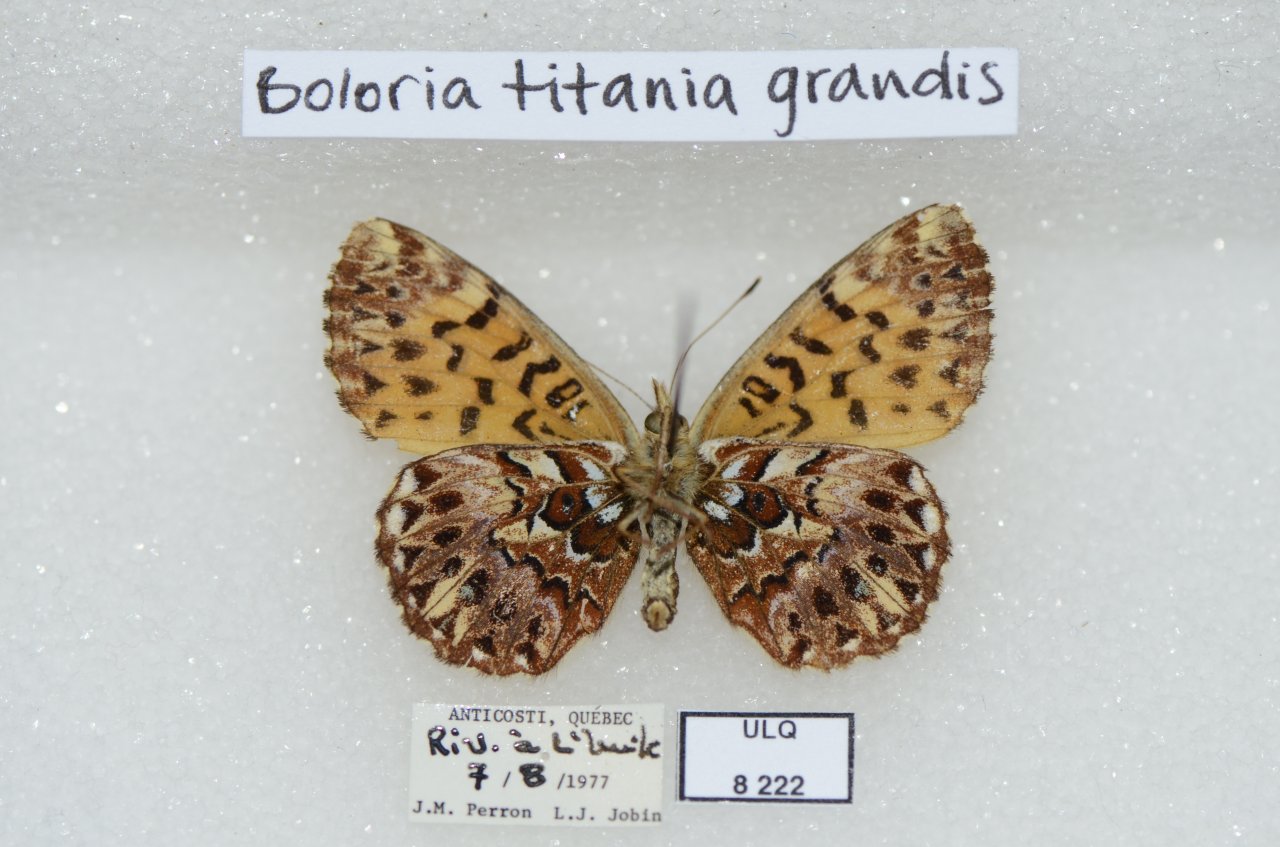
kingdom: Animalia
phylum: Arthropoda
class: Insecta
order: Lepidoptera
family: Nymphalidae
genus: Boloria
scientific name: Boloria chariclea
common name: Arctic Fritillary
